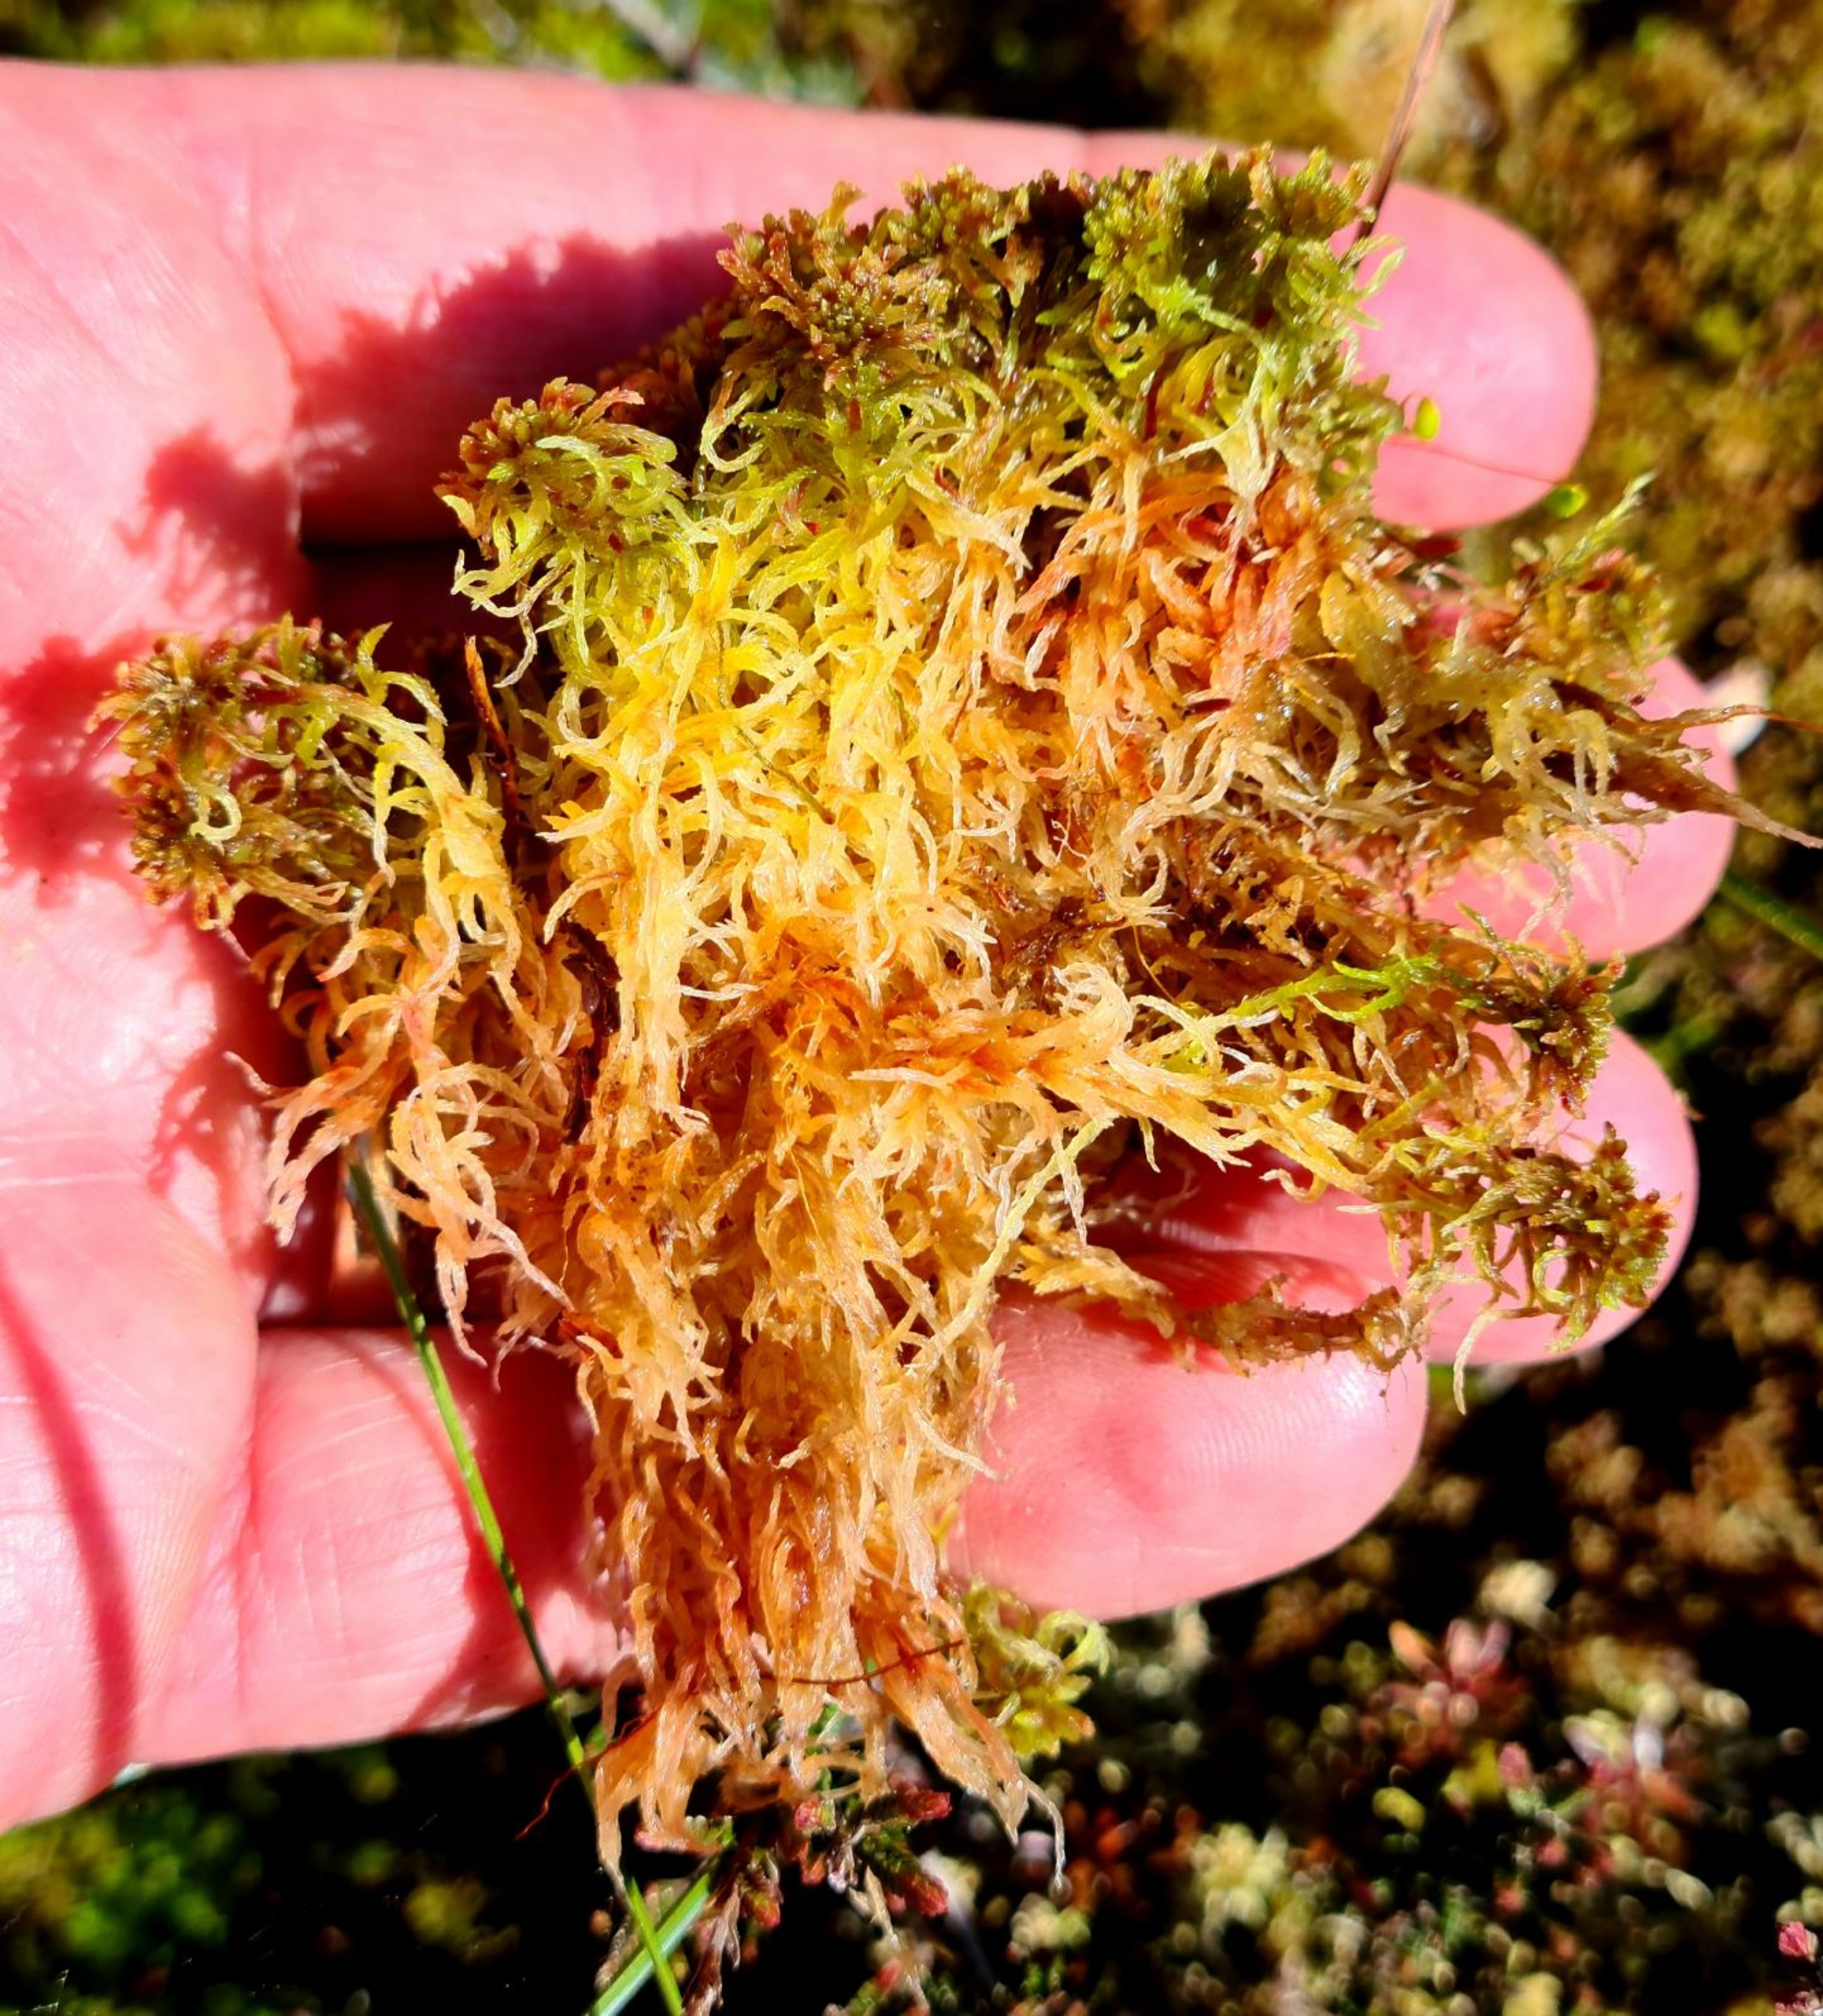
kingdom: Plantae
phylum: Bryophyta
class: Sphagnopsida
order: Sphagnales
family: Sphagnaceae
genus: Sphagnum
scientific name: Sphagnum
